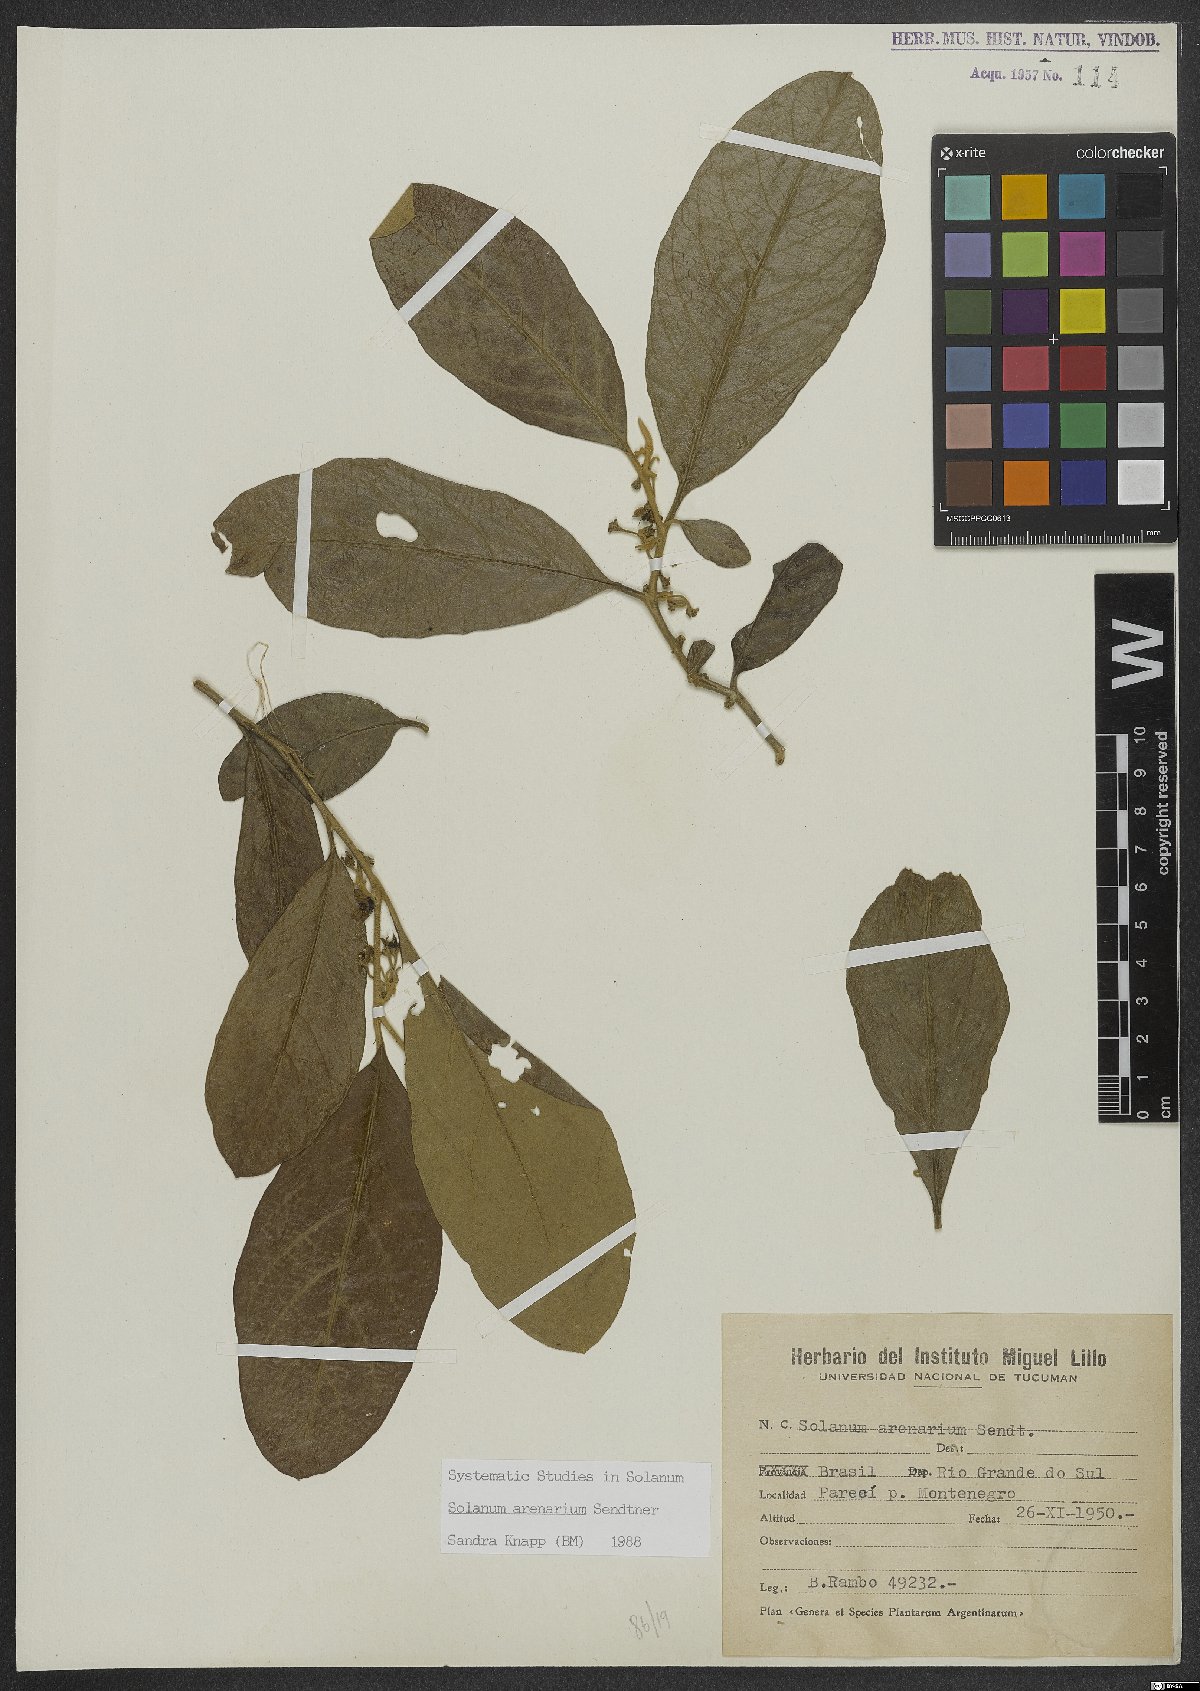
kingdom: Plantae
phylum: Tracheophyta
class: Magnoliopsida
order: Solanales
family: Solanaceae
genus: Solanum
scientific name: Solanum arenarium
